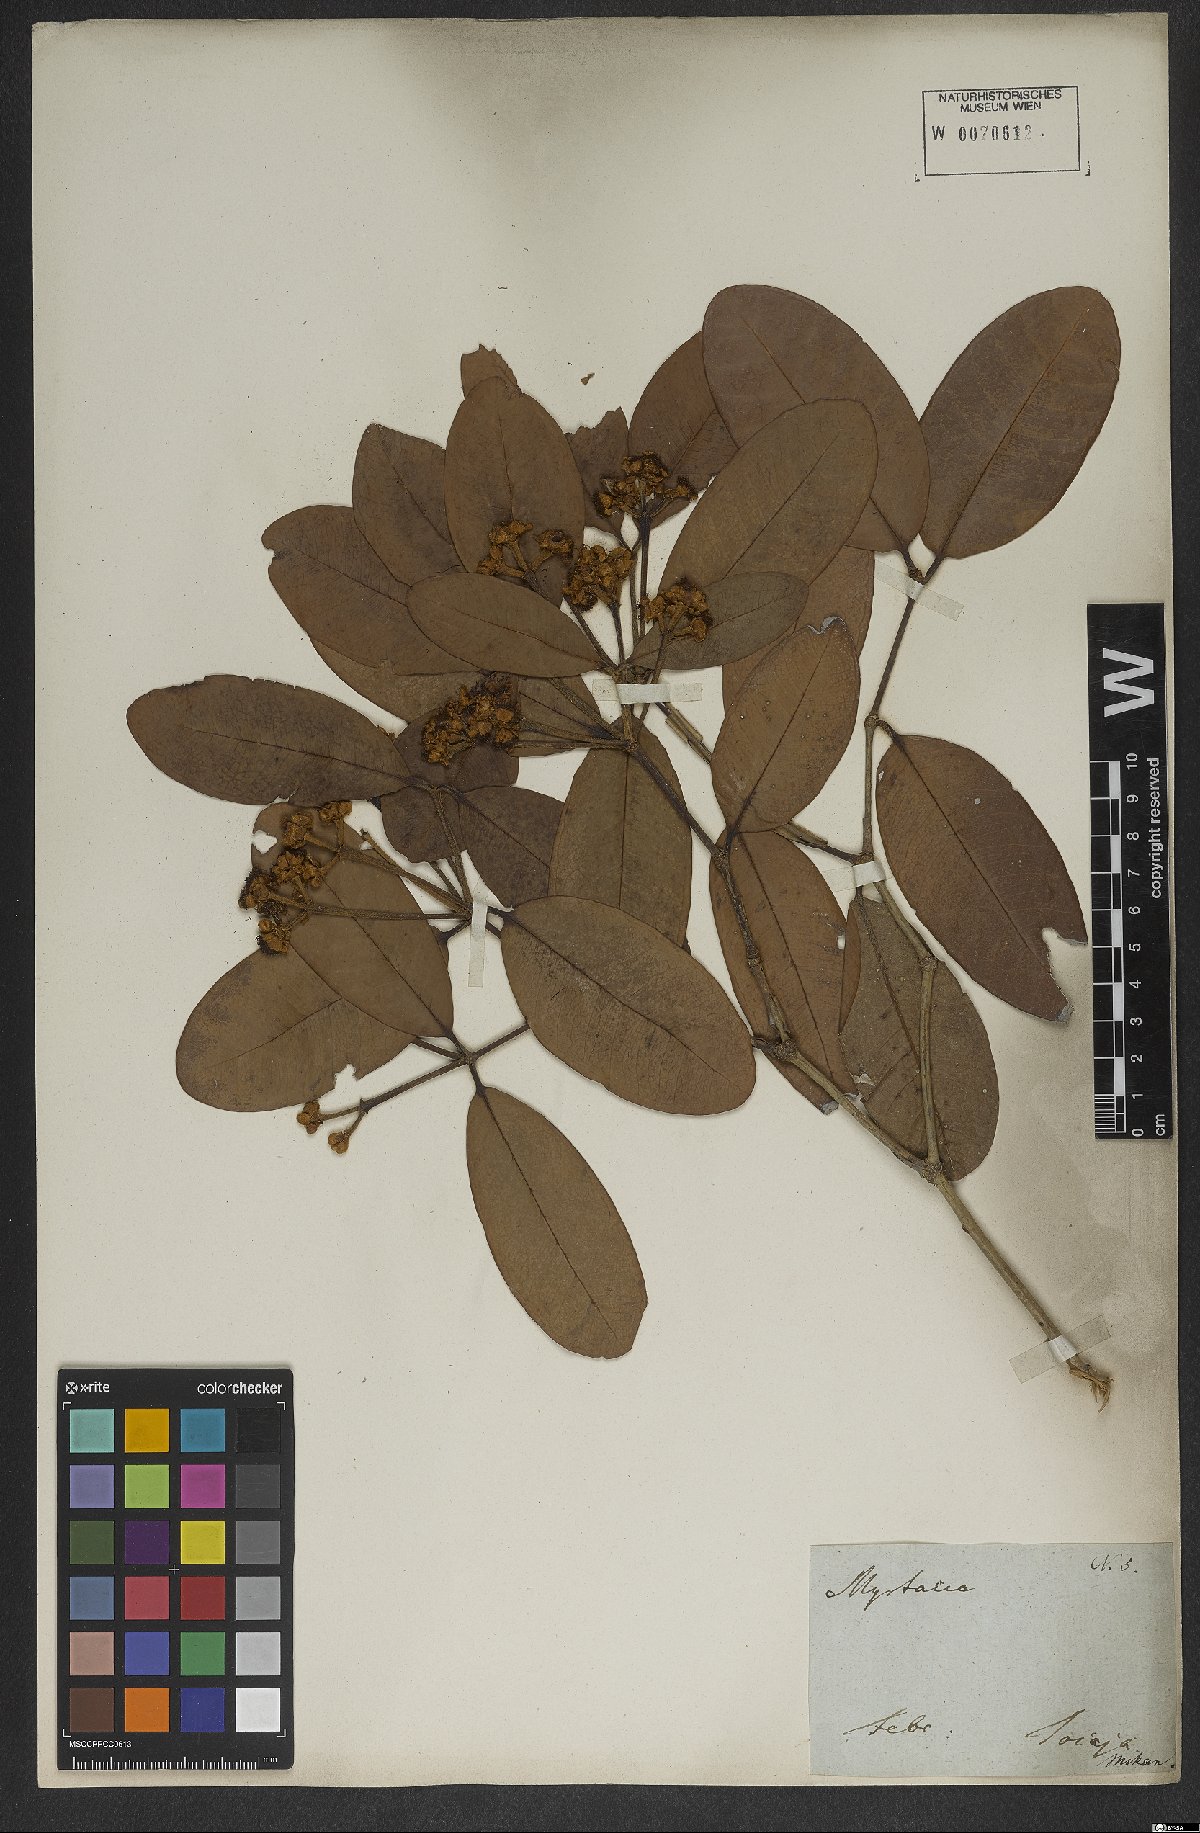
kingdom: Plantae
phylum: Tracheophyta
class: Magnoliopsida
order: Myrtales
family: Myrtaceae
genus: Myrcia
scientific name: Myrcia martiusiana
